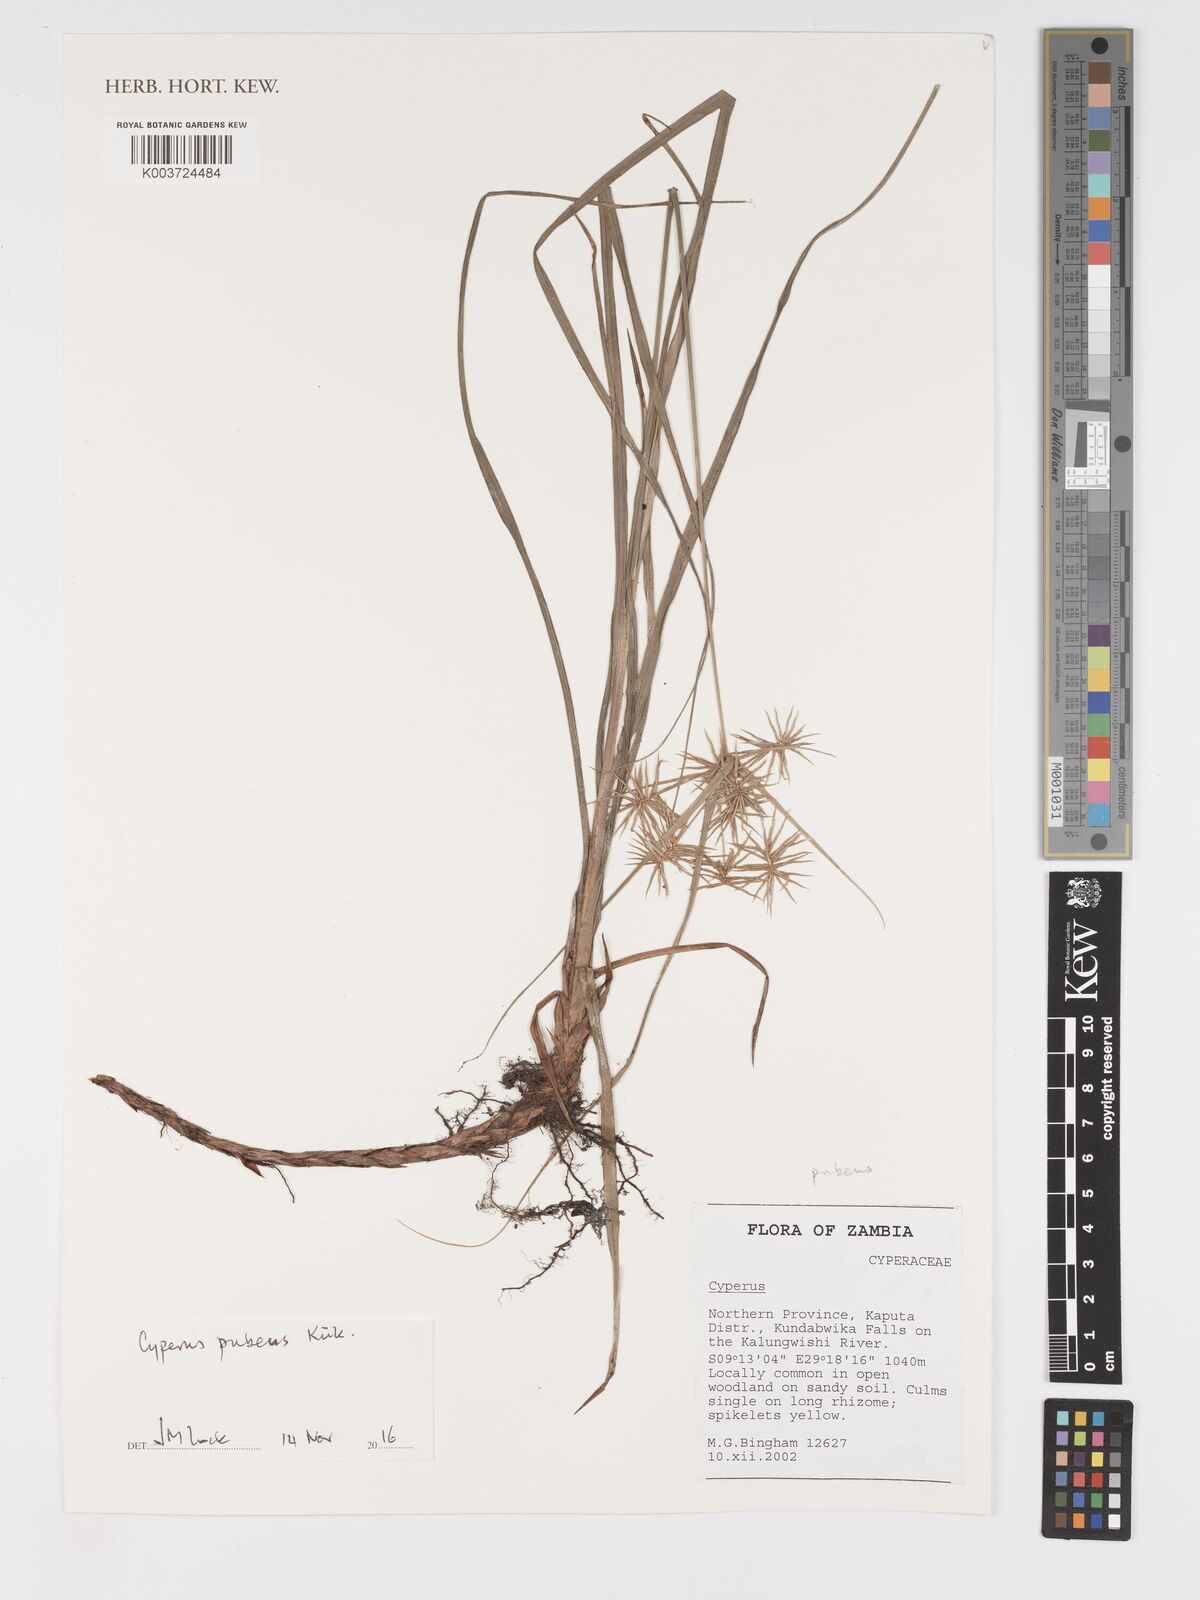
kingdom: Plantae
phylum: Tracheophyta
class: Liliopsida
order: Poales
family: Cyperaceae
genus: Cyperus
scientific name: Cyperus pubens
